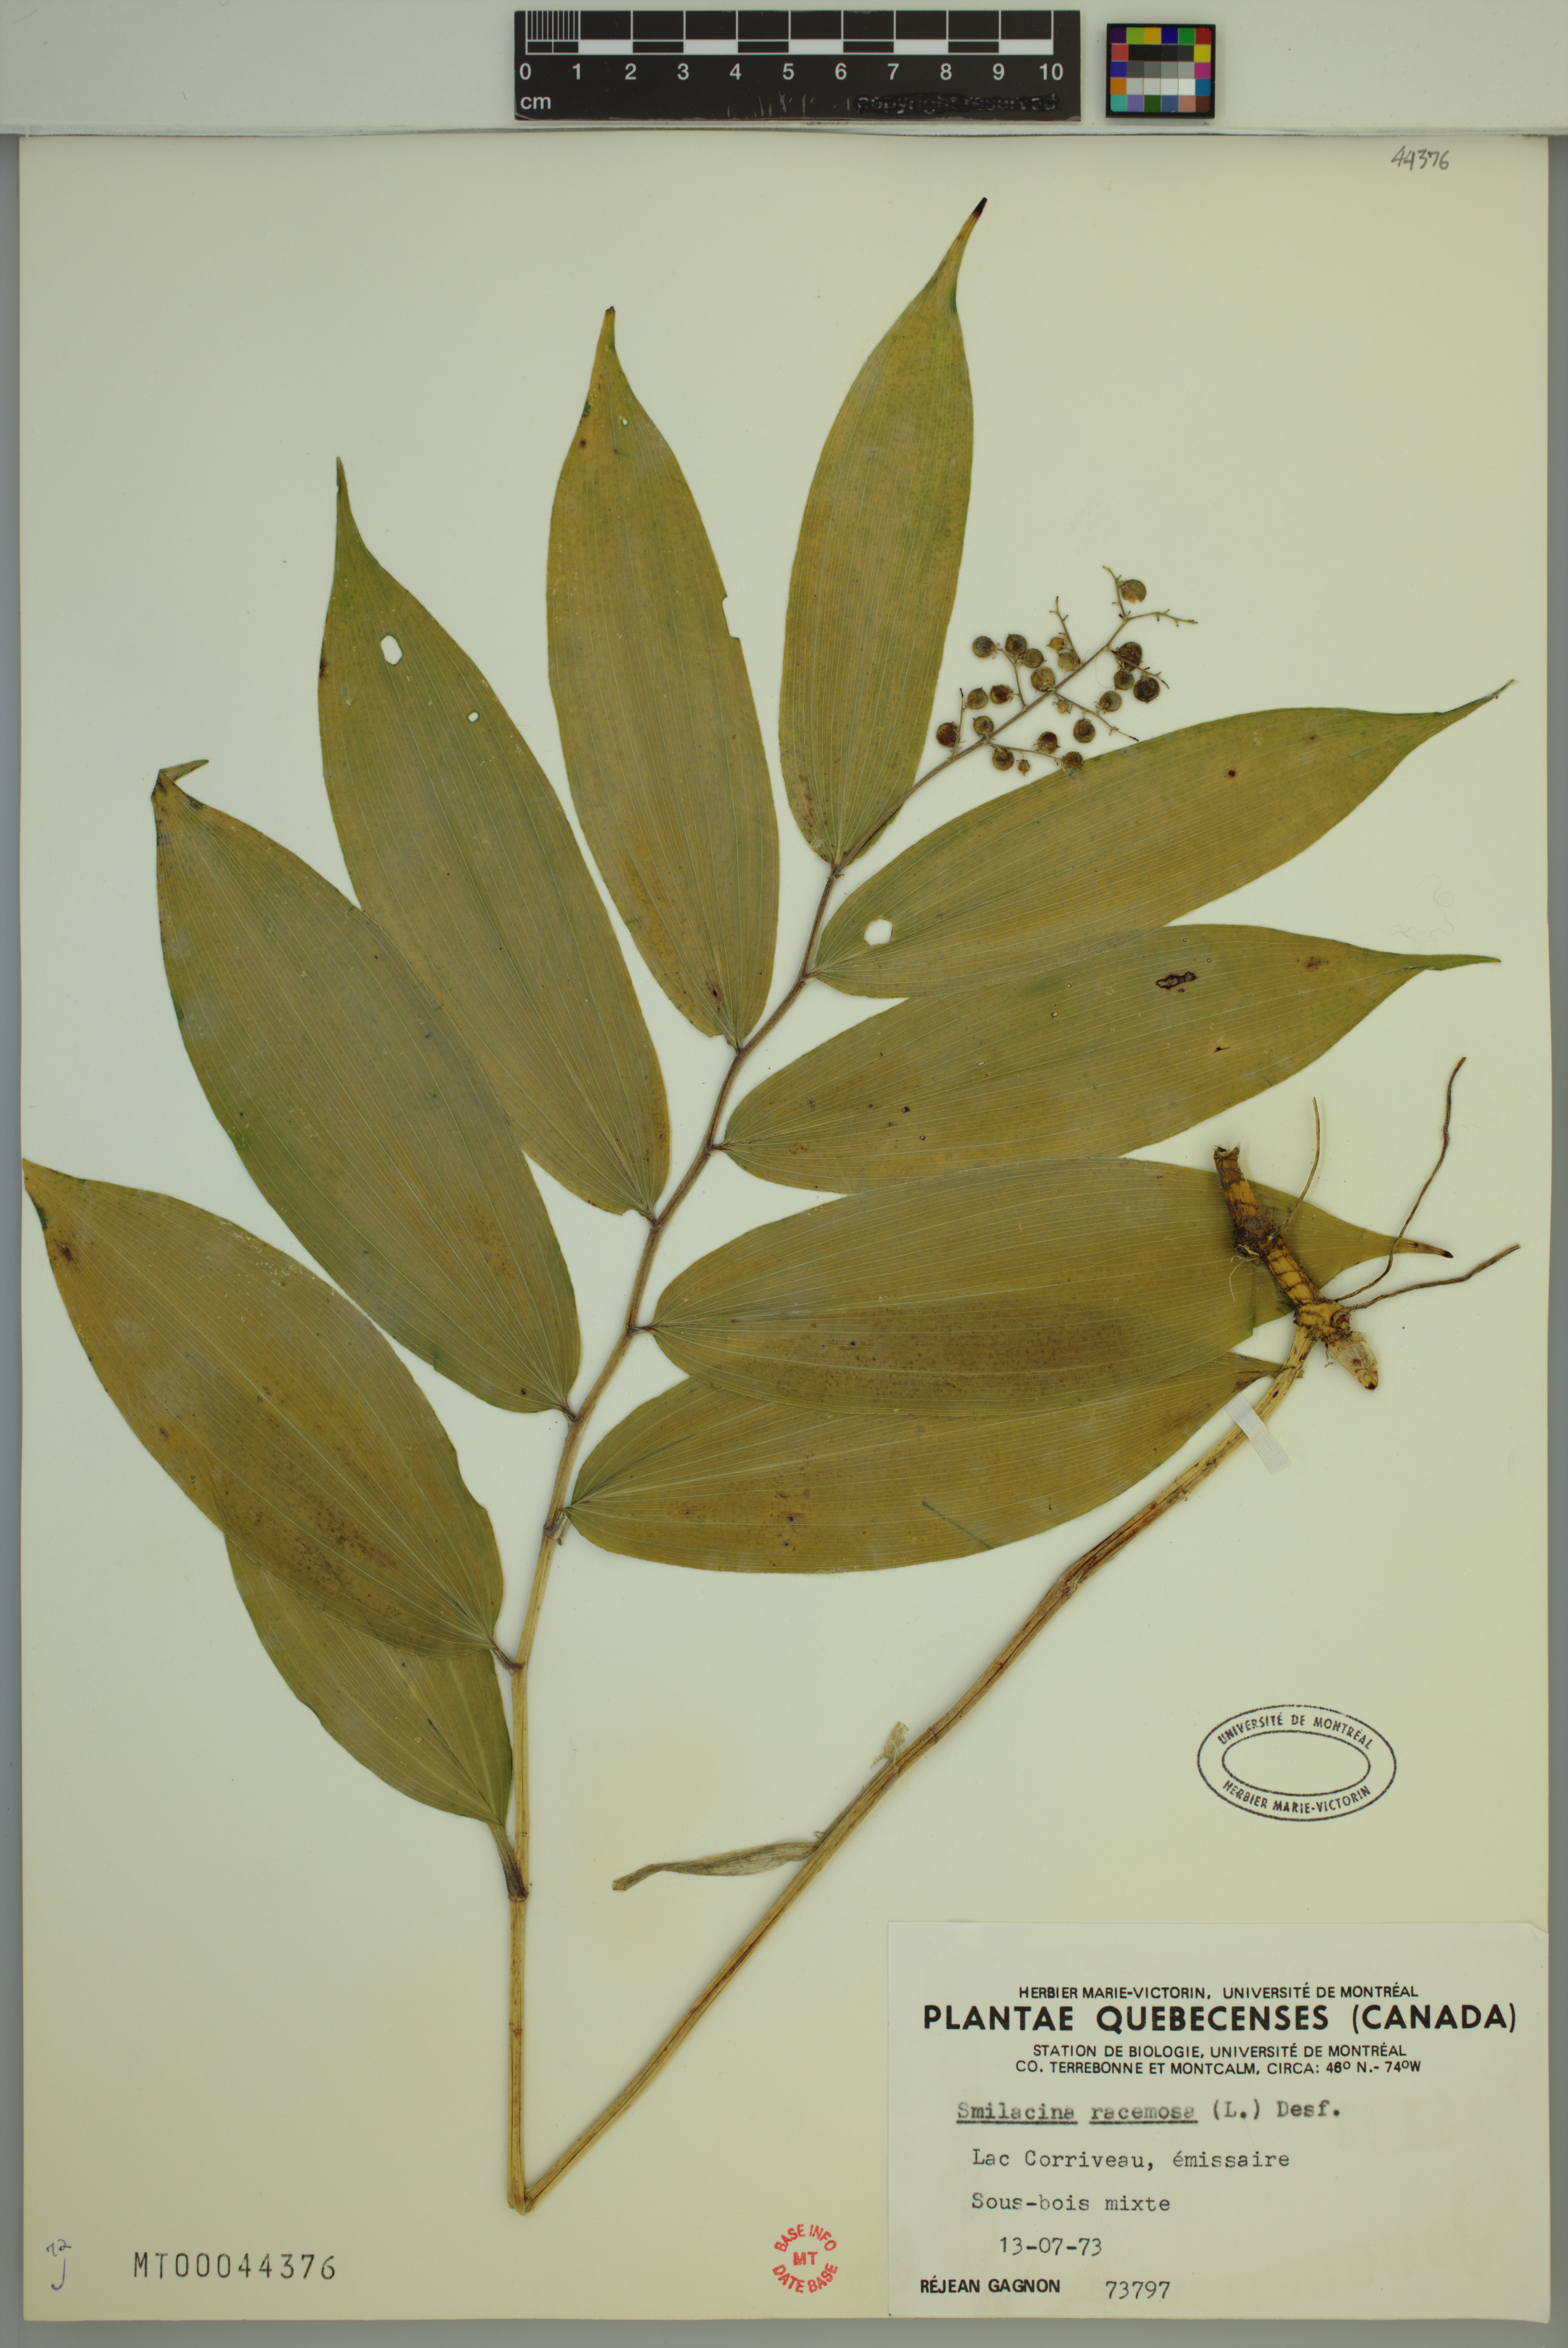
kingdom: Plantae
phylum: Tracheophyta
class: Liliopsida
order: Asparagales
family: Asparagaceae
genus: Maianthemum
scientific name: Maianthemum racemosum
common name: False spikenard
